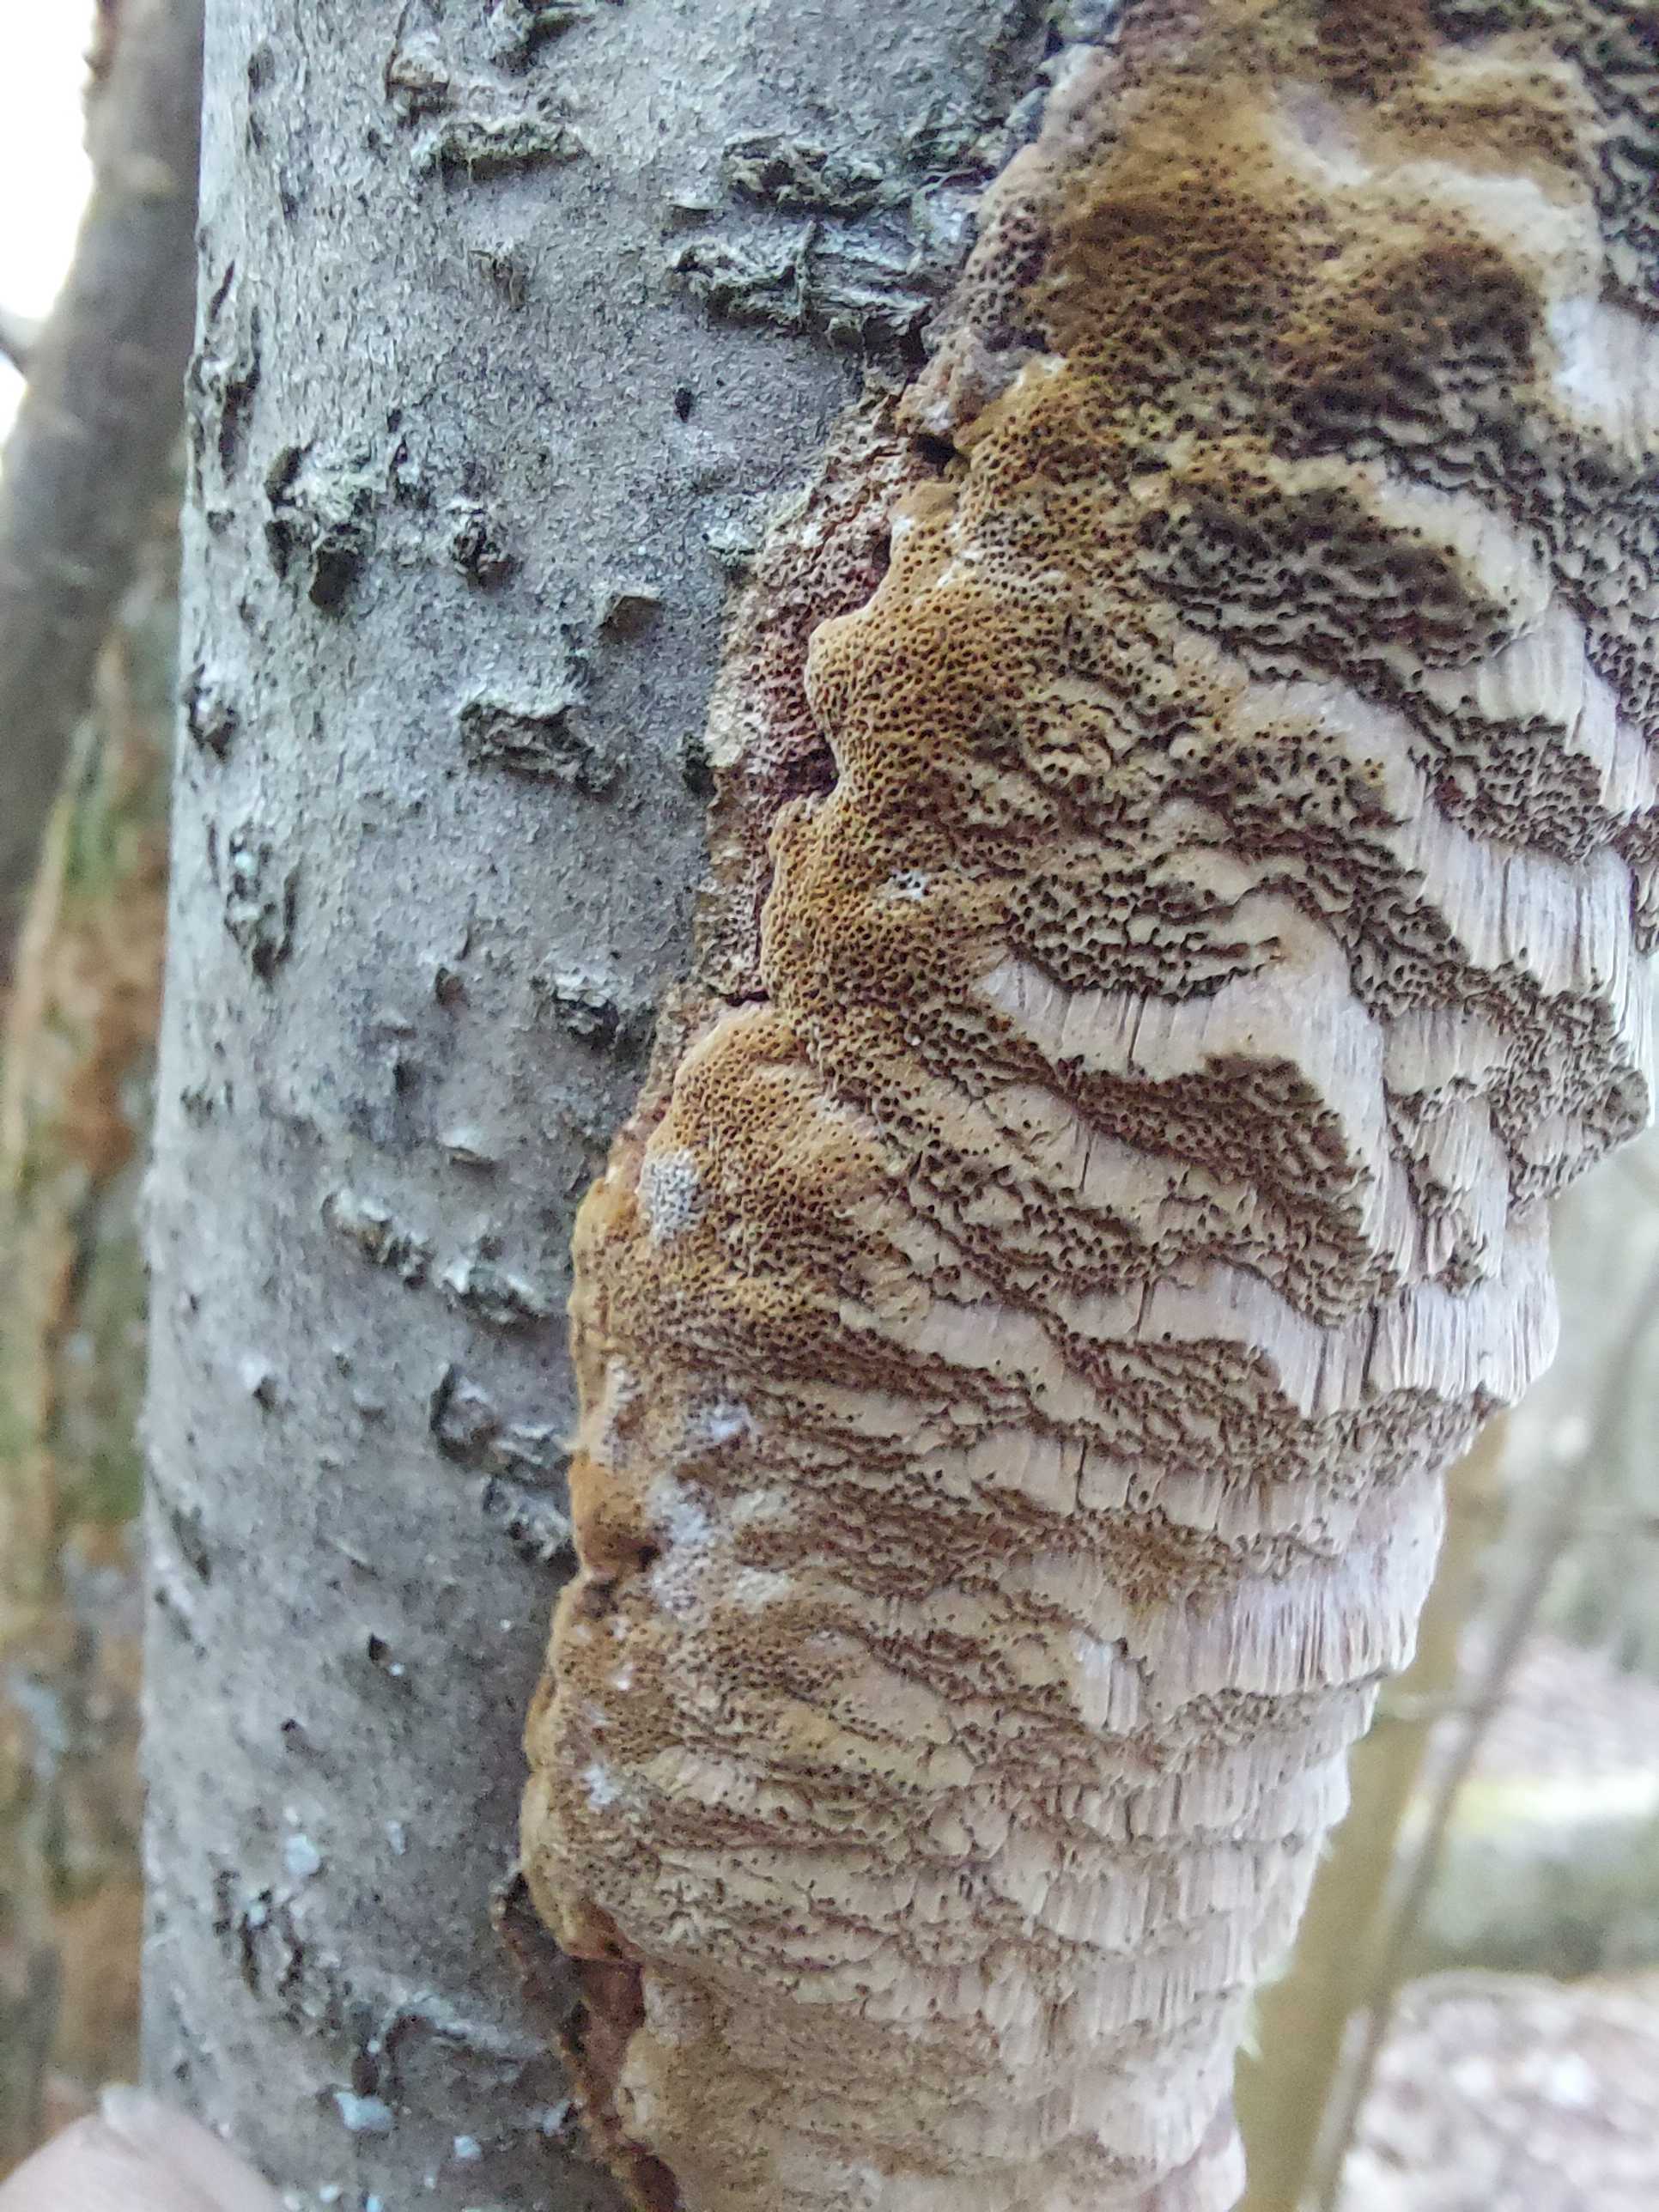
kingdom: Fungi
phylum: Basidiomycota
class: Agaricomycetes
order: Hymenochaetales
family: Hymenochaetaceae
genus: Fuscoporia
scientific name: Fuscoporia ferrea
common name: skorpe-ildporesvamp
